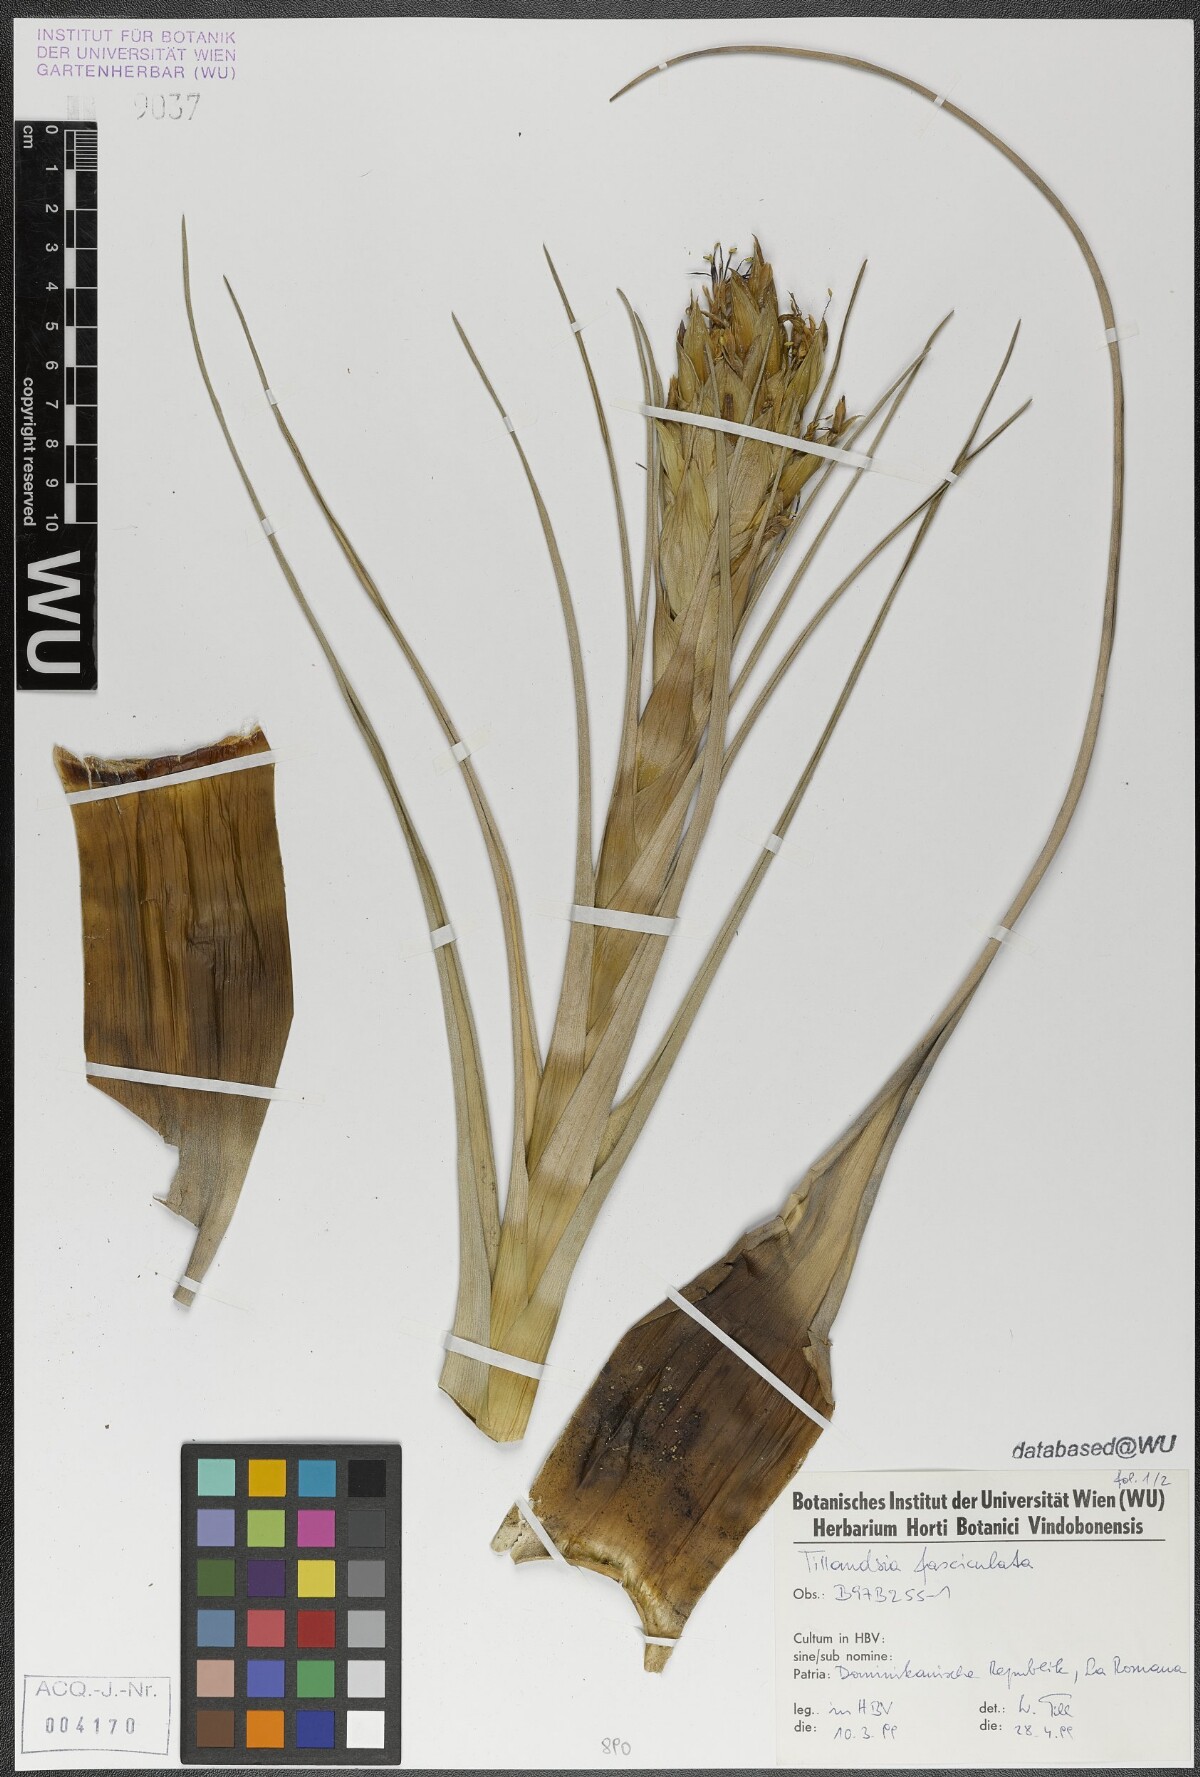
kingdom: Plantae
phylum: Tracheophyta
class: Liliopsida
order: Poales
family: Bromeliaceae
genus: Tillandsia
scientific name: Tillandsia fasciculata
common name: Giant airplant
